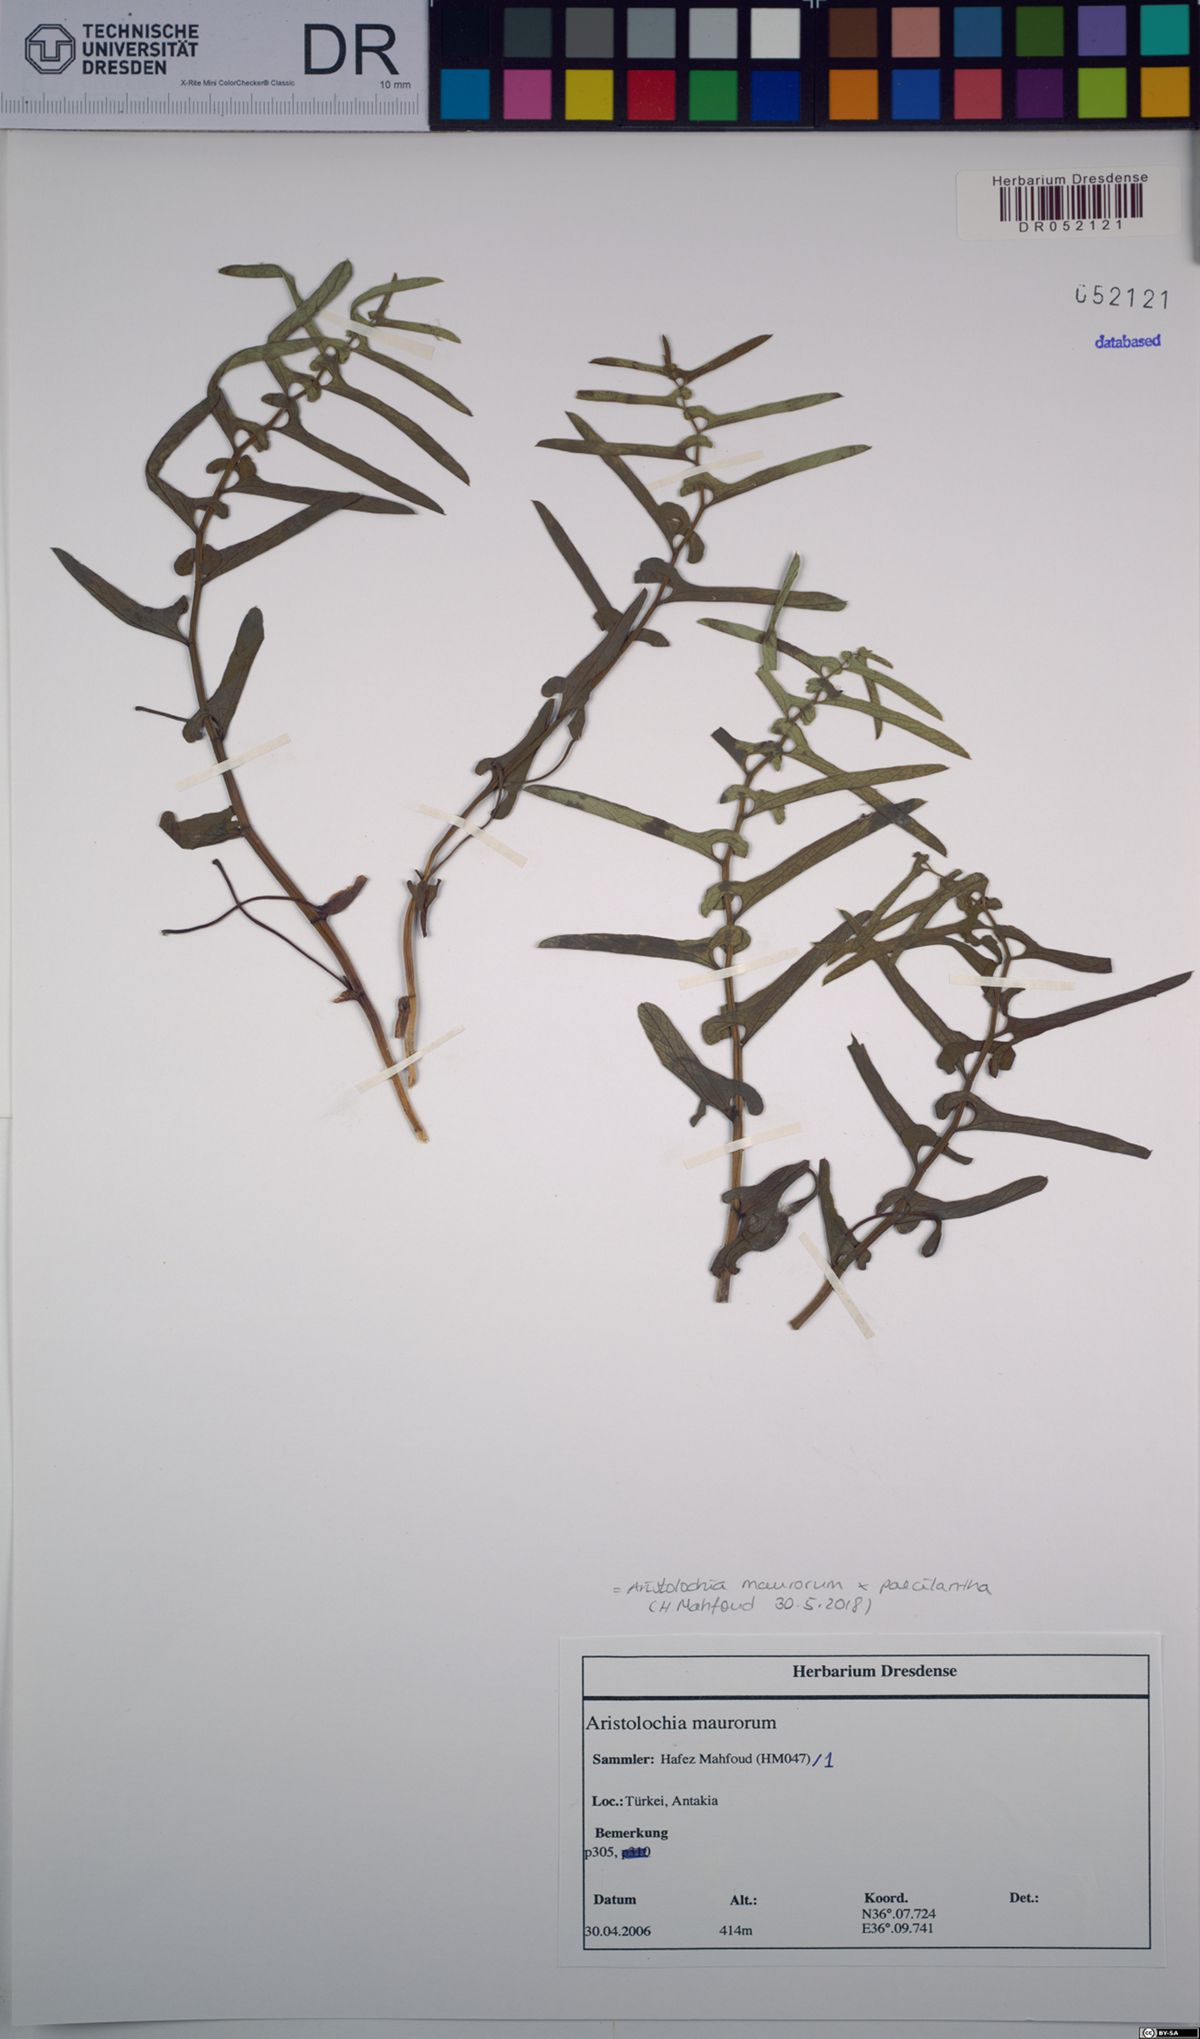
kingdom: Plantae
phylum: Tracheophyta
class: Magnoliopsida
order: Piperales
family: Aristolochiaceae
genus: Aristolochia
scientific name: Aristolochia maurorum
